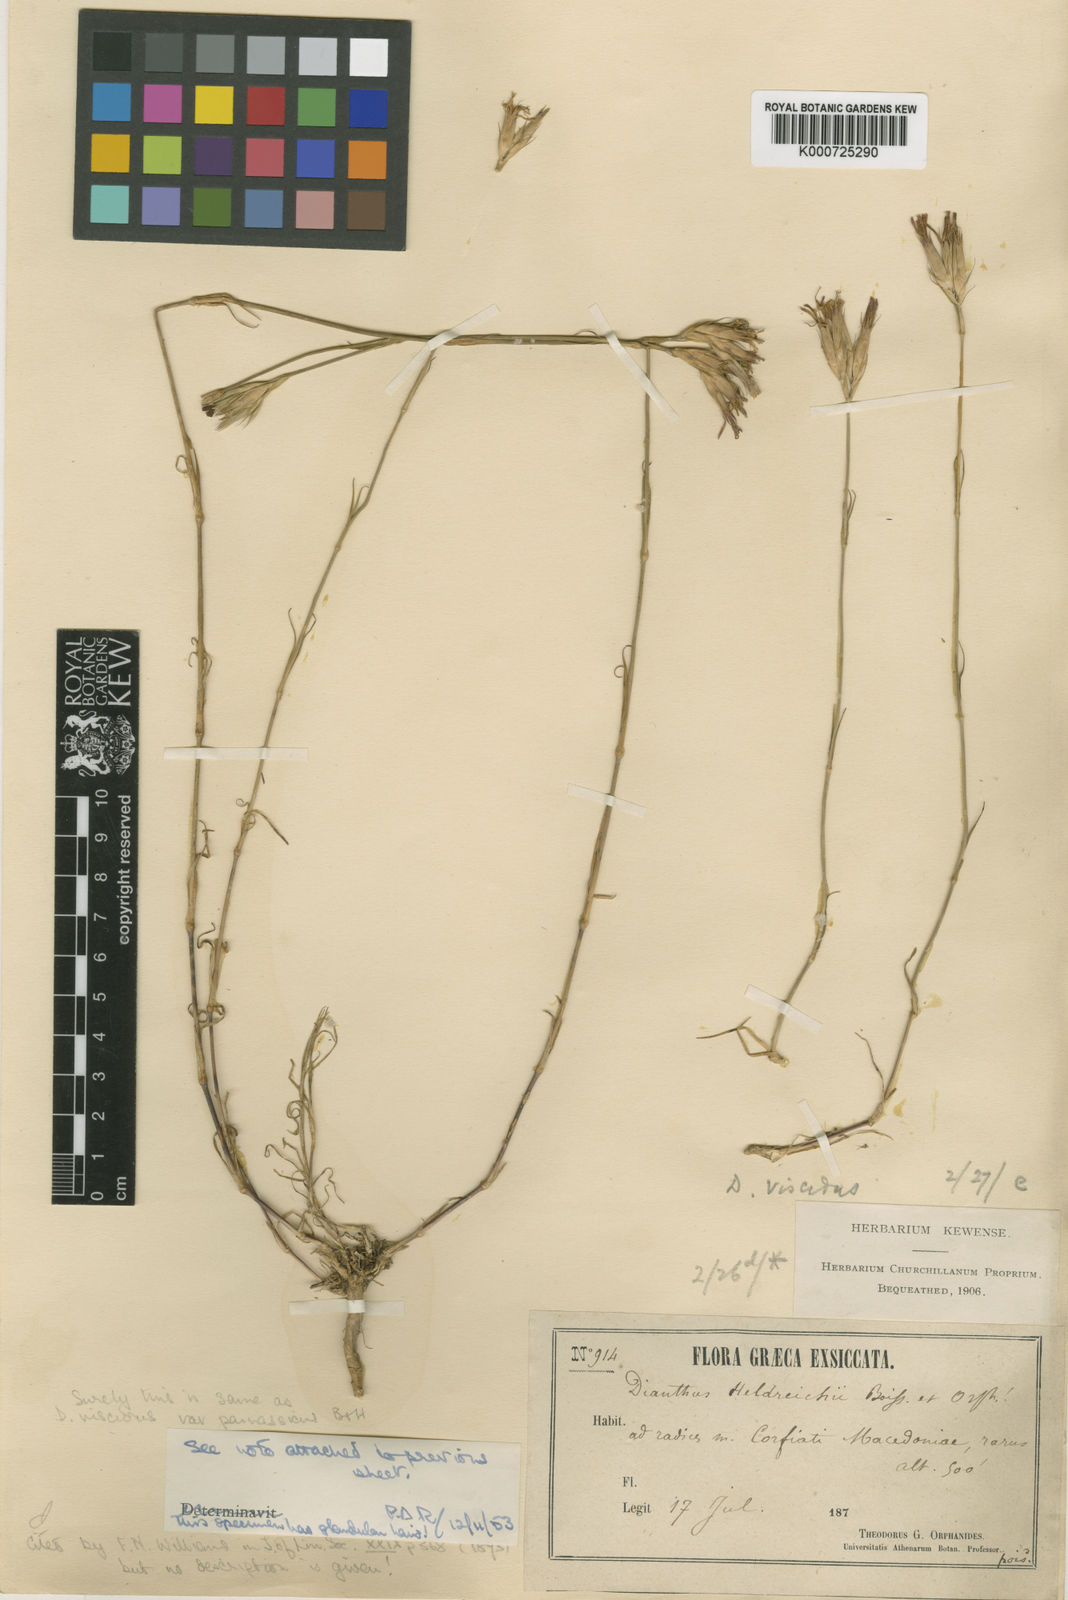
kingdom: Plantae
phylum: Tracheophyta
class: Magnoliopsida
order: Caryophyllales
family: Caryophyllaceae
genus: Dianthus
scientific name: Dianthus viscidus
